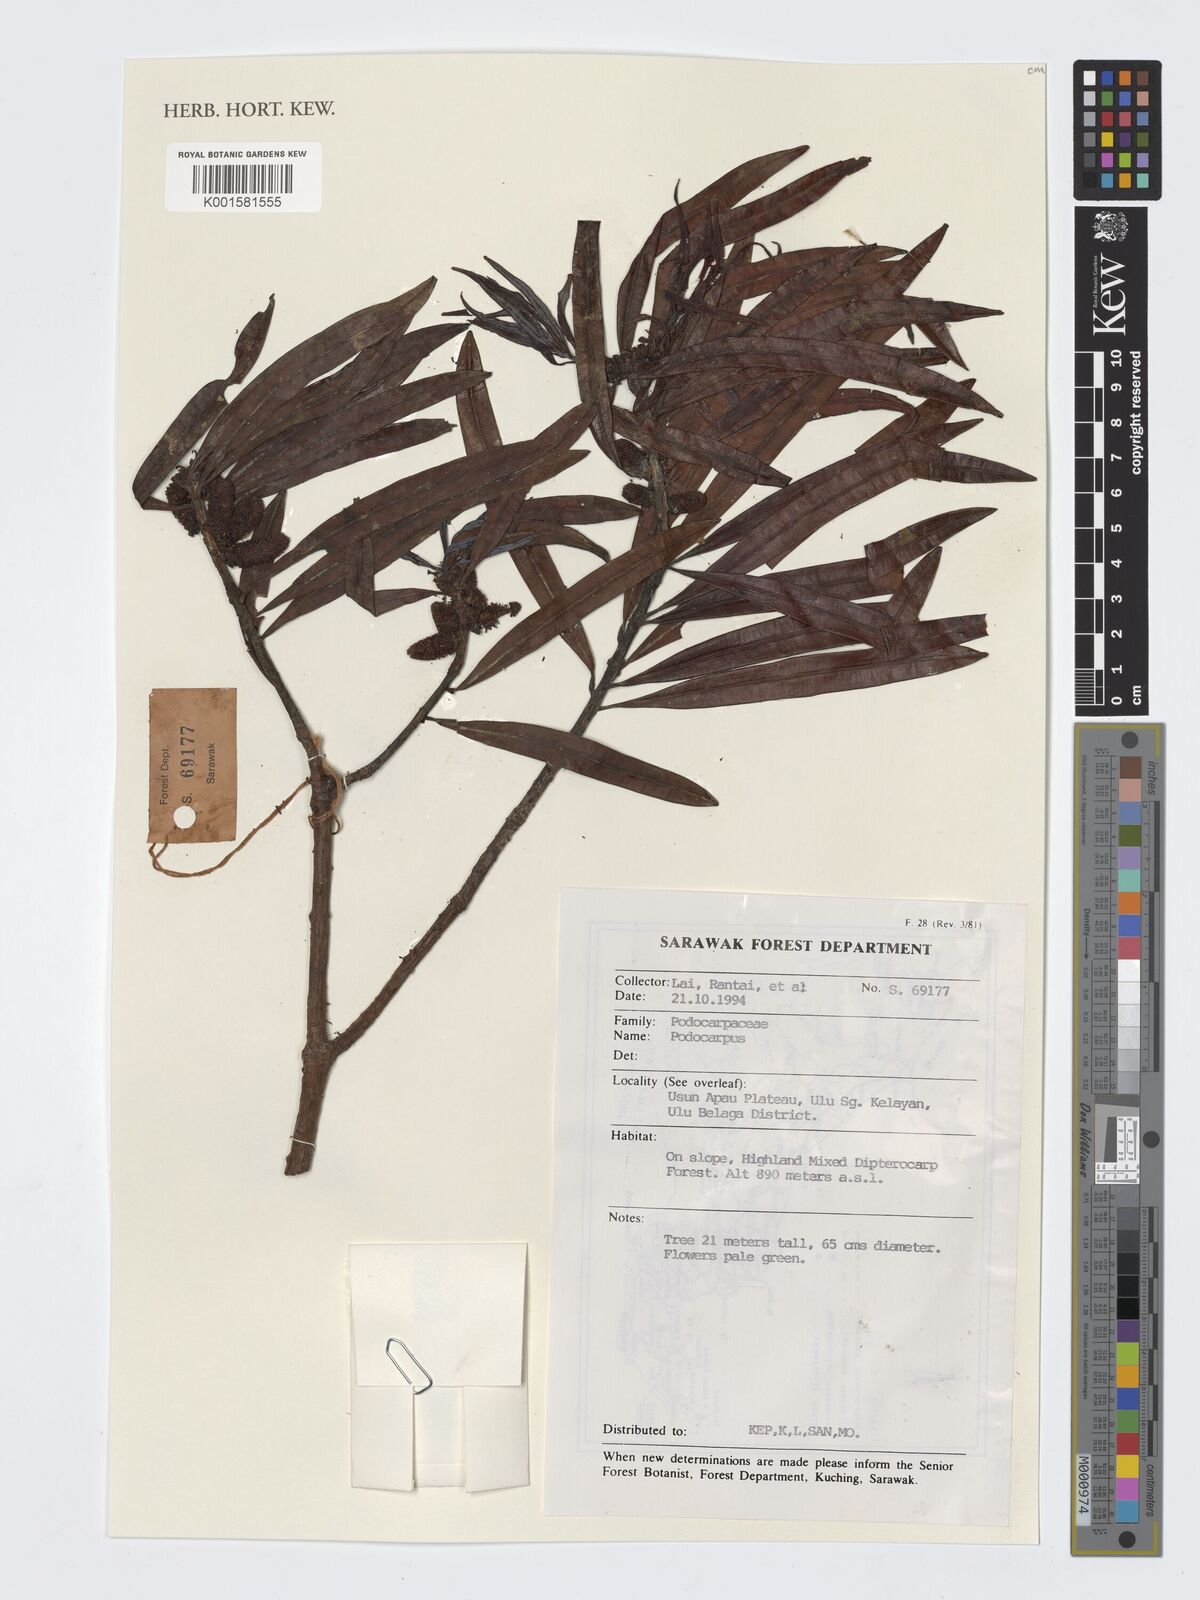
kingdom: Plantae
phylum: Tracheophyta
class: Pinopsida
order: Pinales
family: Podocarpaceae
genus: Podocarpus
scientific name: Podocarpus
